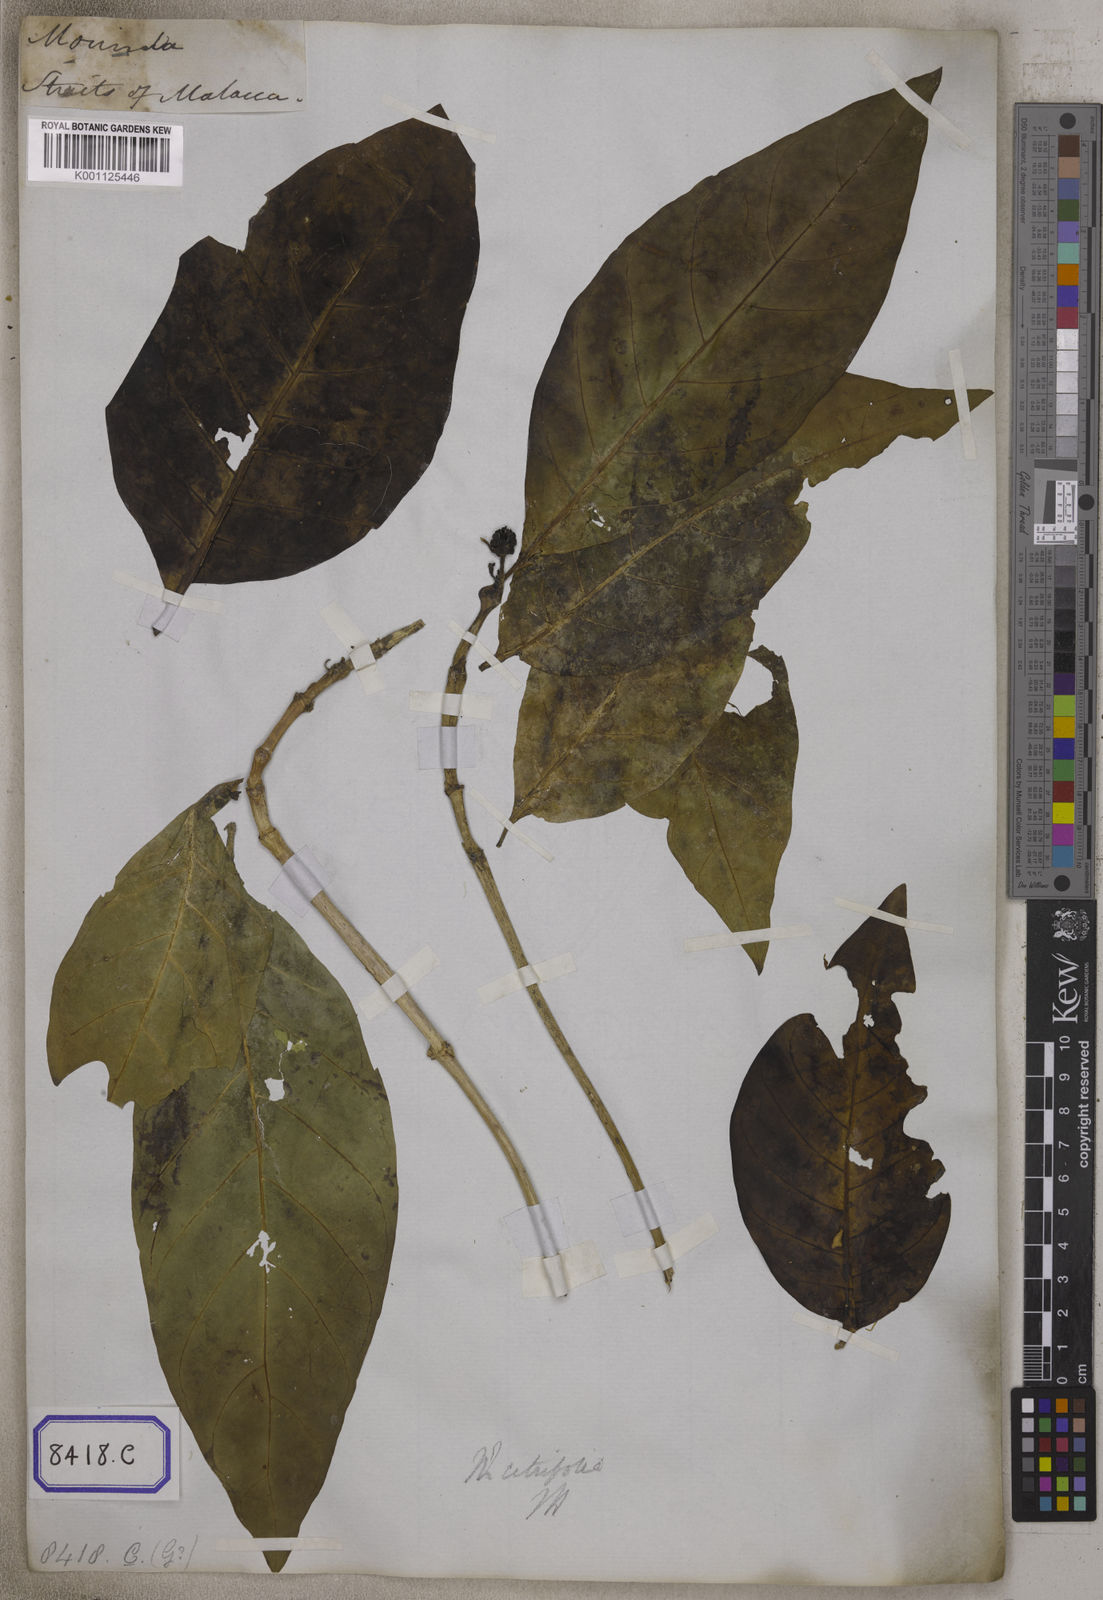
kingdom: Plantae
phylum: Tracheophyta
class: Magnoliopsida
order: Gentianales
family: Rubiaceae
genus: Morinda
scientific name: Morinda citrifolia
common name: Indian-mulberry
